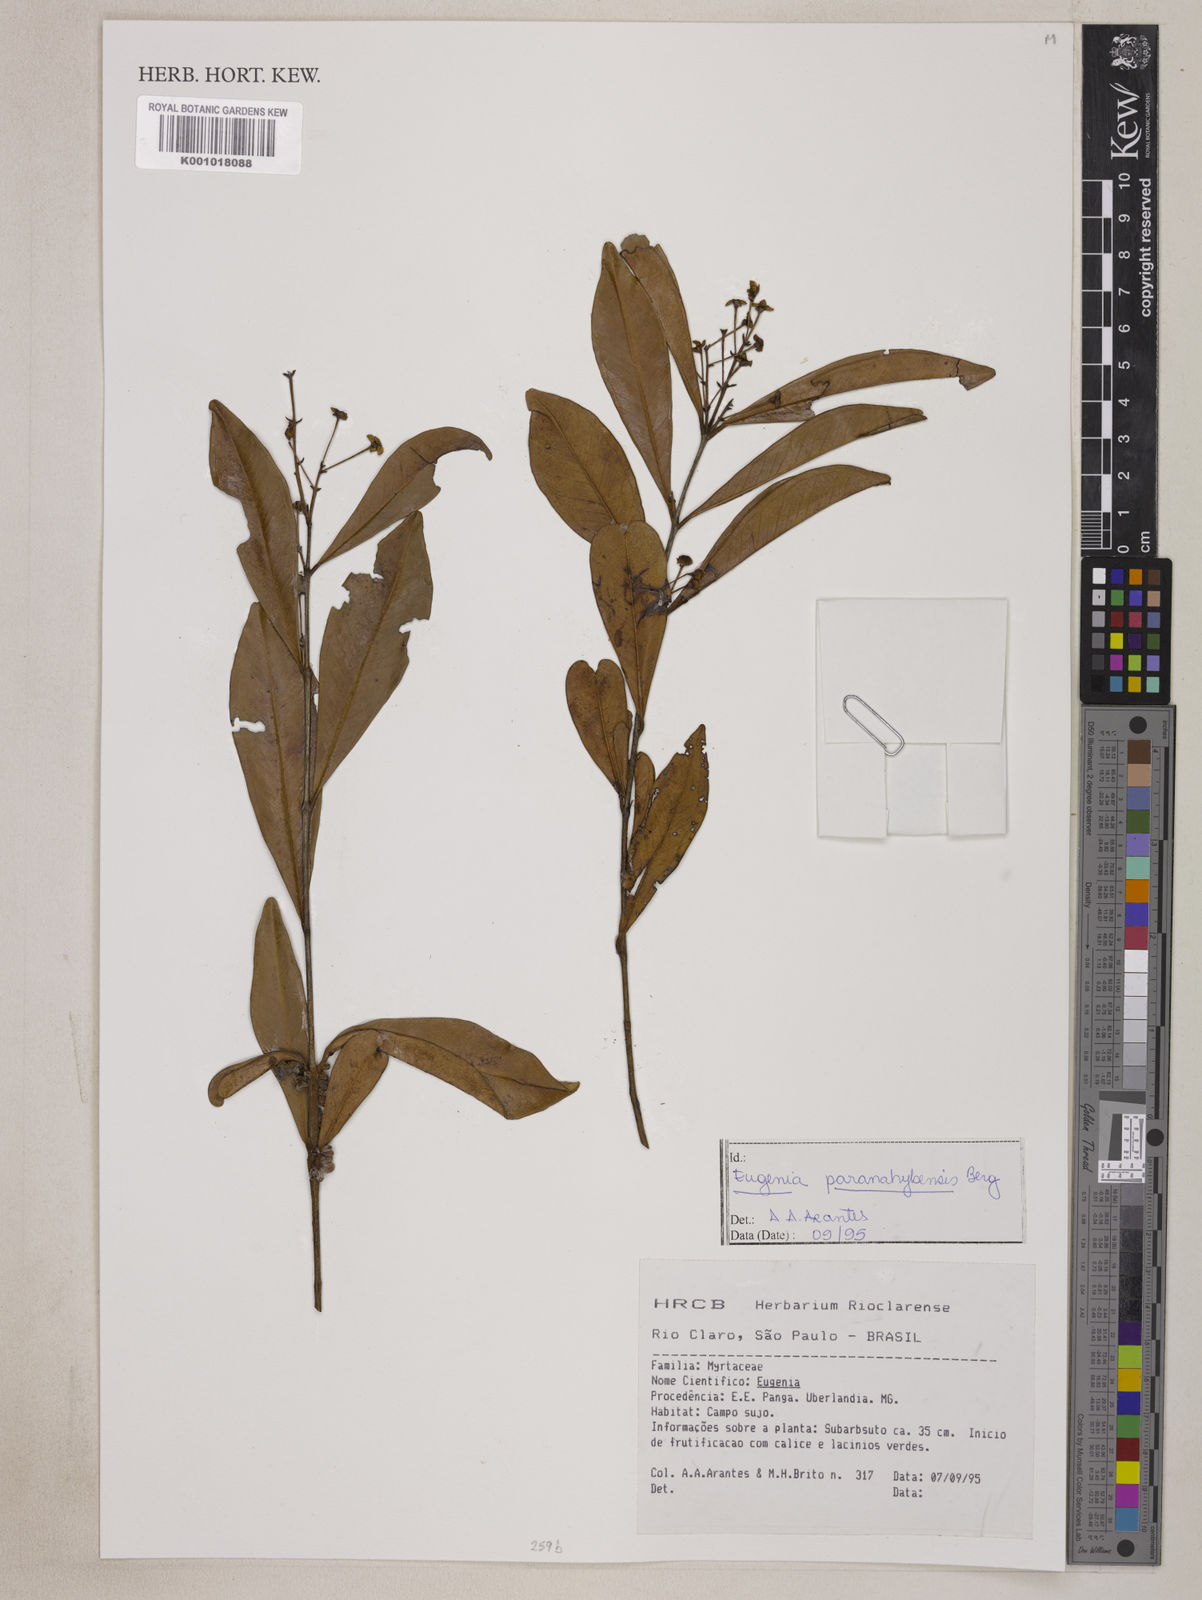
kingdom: Plantae
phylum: Tracheophyta
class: Magnoliopsida
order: Myrtales
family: Myrtaceae
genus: Eugenia
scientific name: Eugenia paranahybensis
